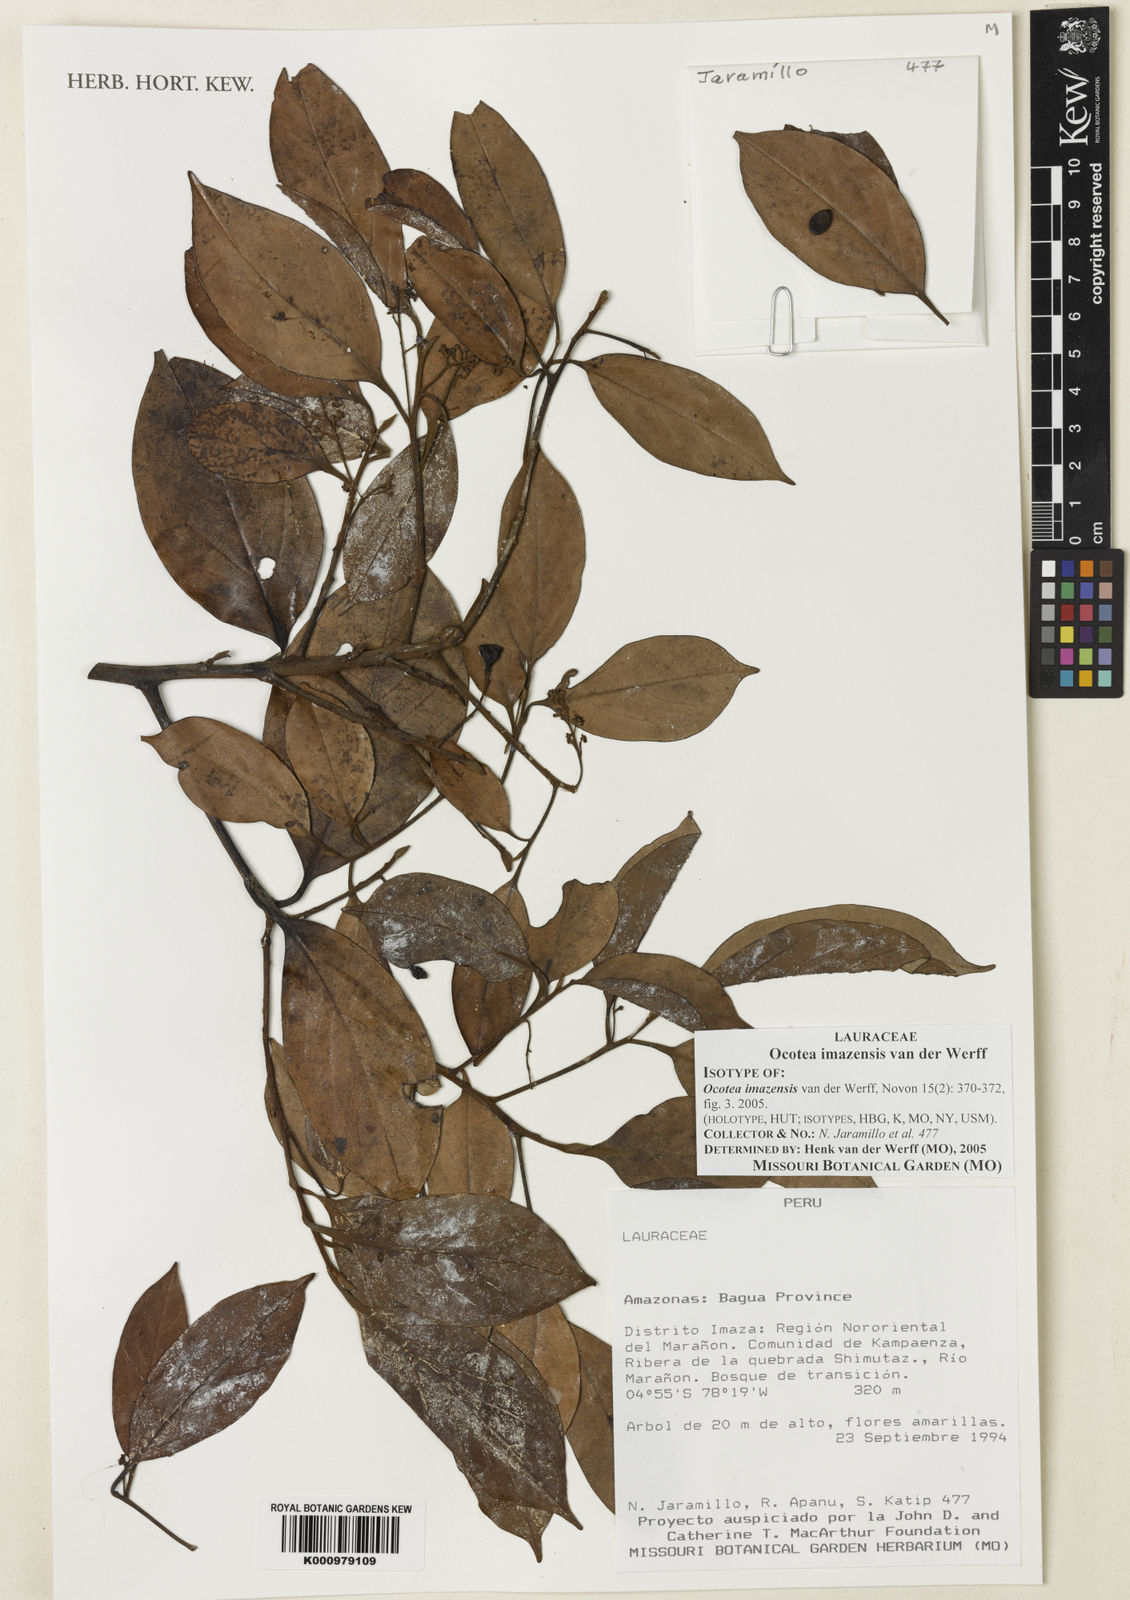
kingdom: Plantae
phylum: Tracheophyta
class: Magnoliopsida
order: Laurales
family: Lauraceae
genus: Ocotea
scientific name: Ocotea imazensis
